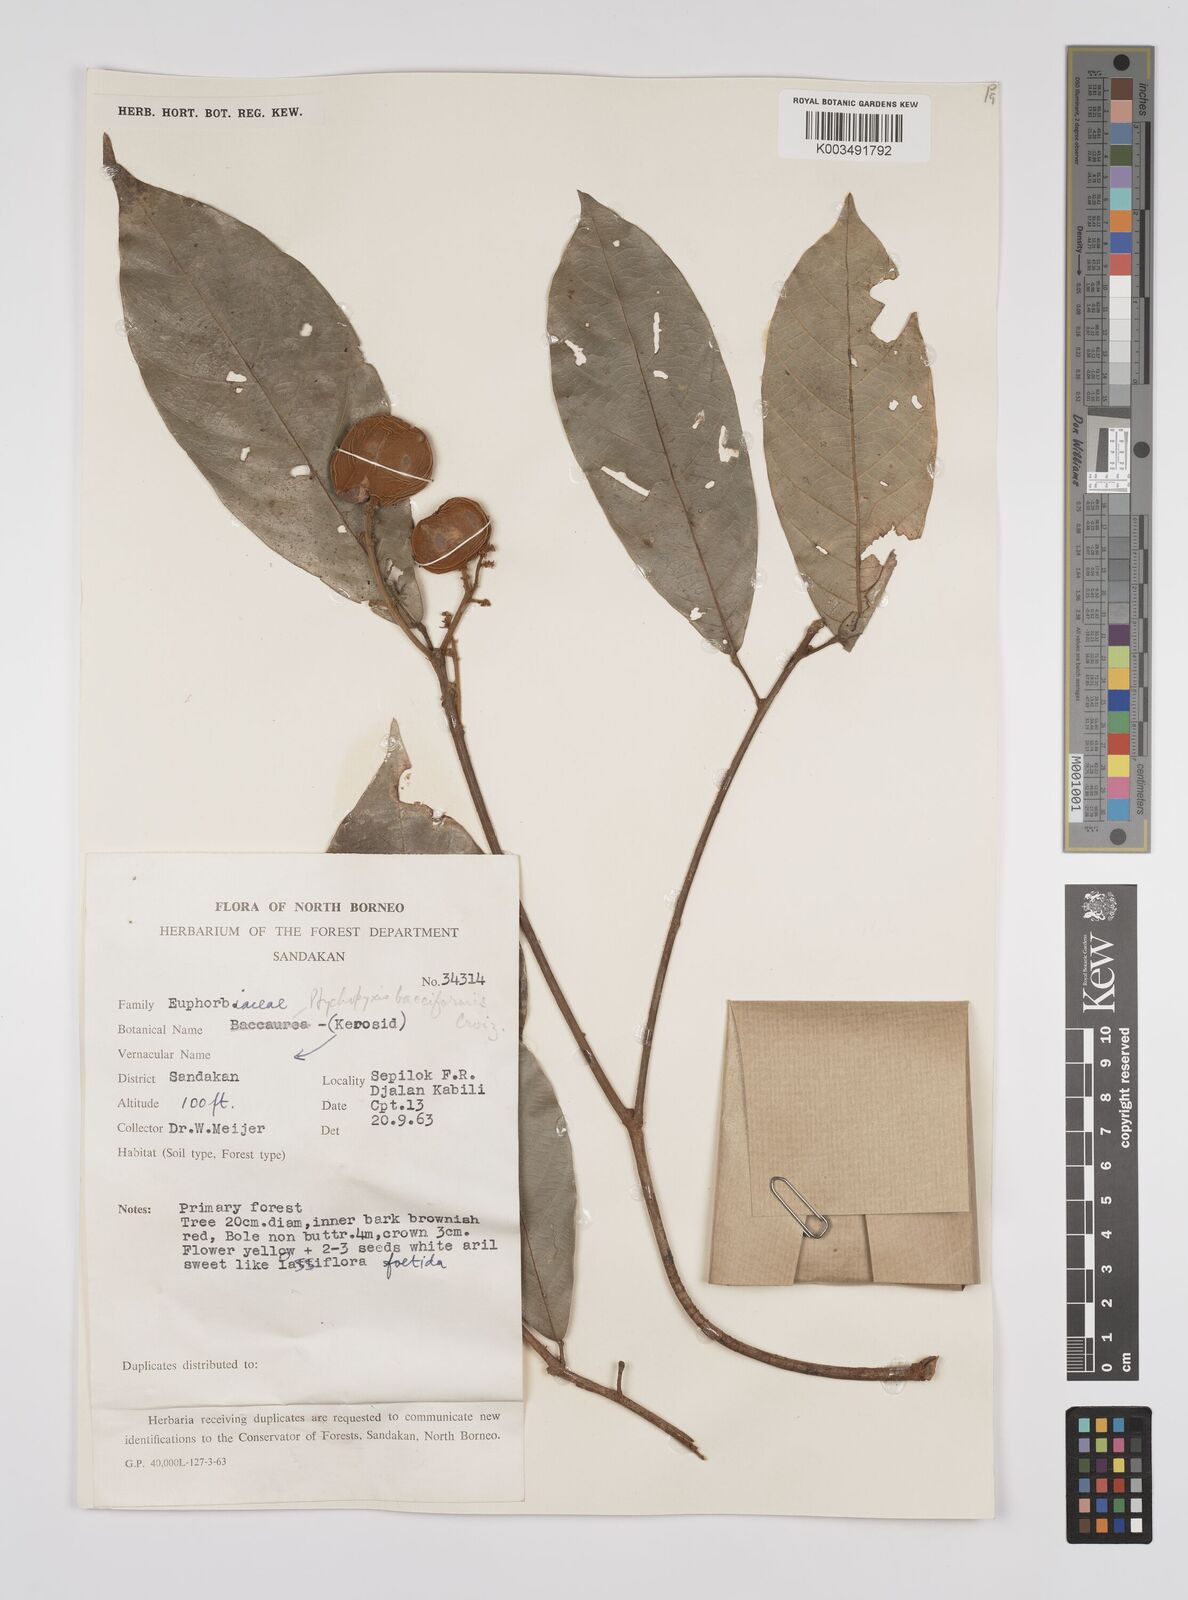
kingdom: Plantae
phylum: Tracheophyta
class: Magnoliopsida
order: Malpighiales
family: Euphorbiaceae
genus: Ptychopyxis
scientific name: Ptychopyxis bacciformis
